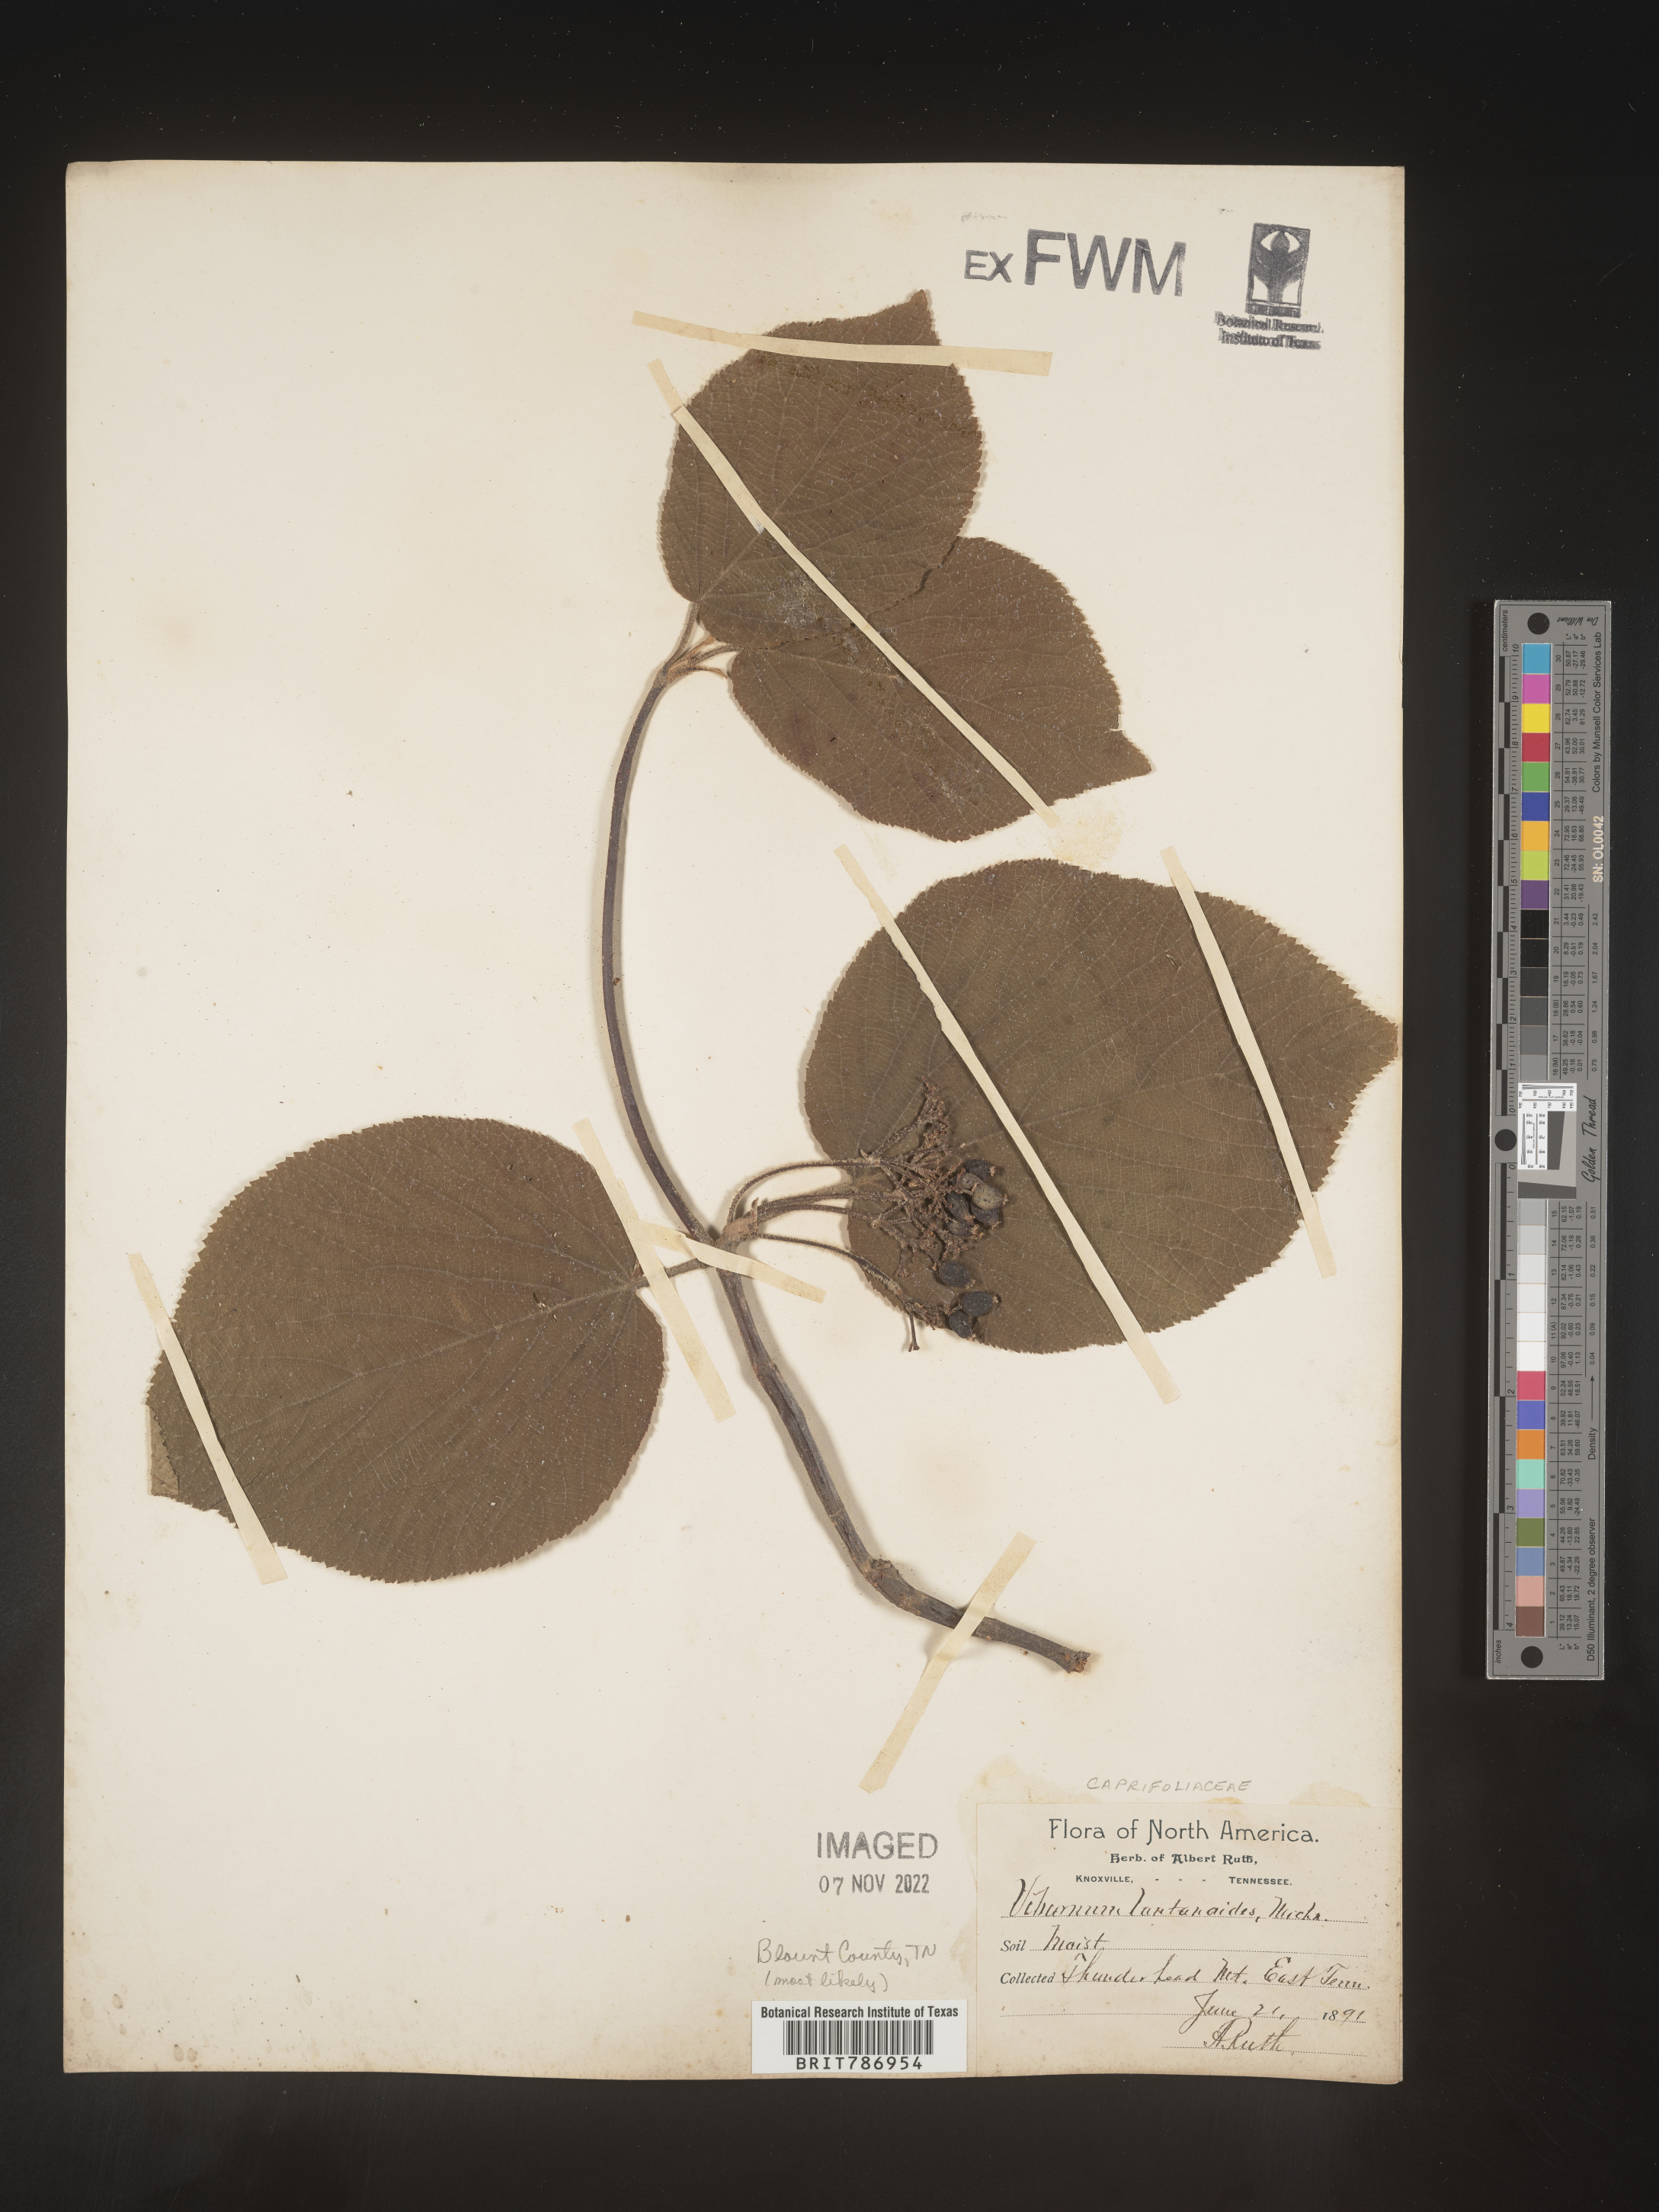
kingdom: Plantae
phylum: Tracheophyta
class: Magnoliopsida
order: Dipsacales
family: Viburnaceae
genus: Viburnum
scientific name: Viburnum lantanoides
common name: Hobblebush
